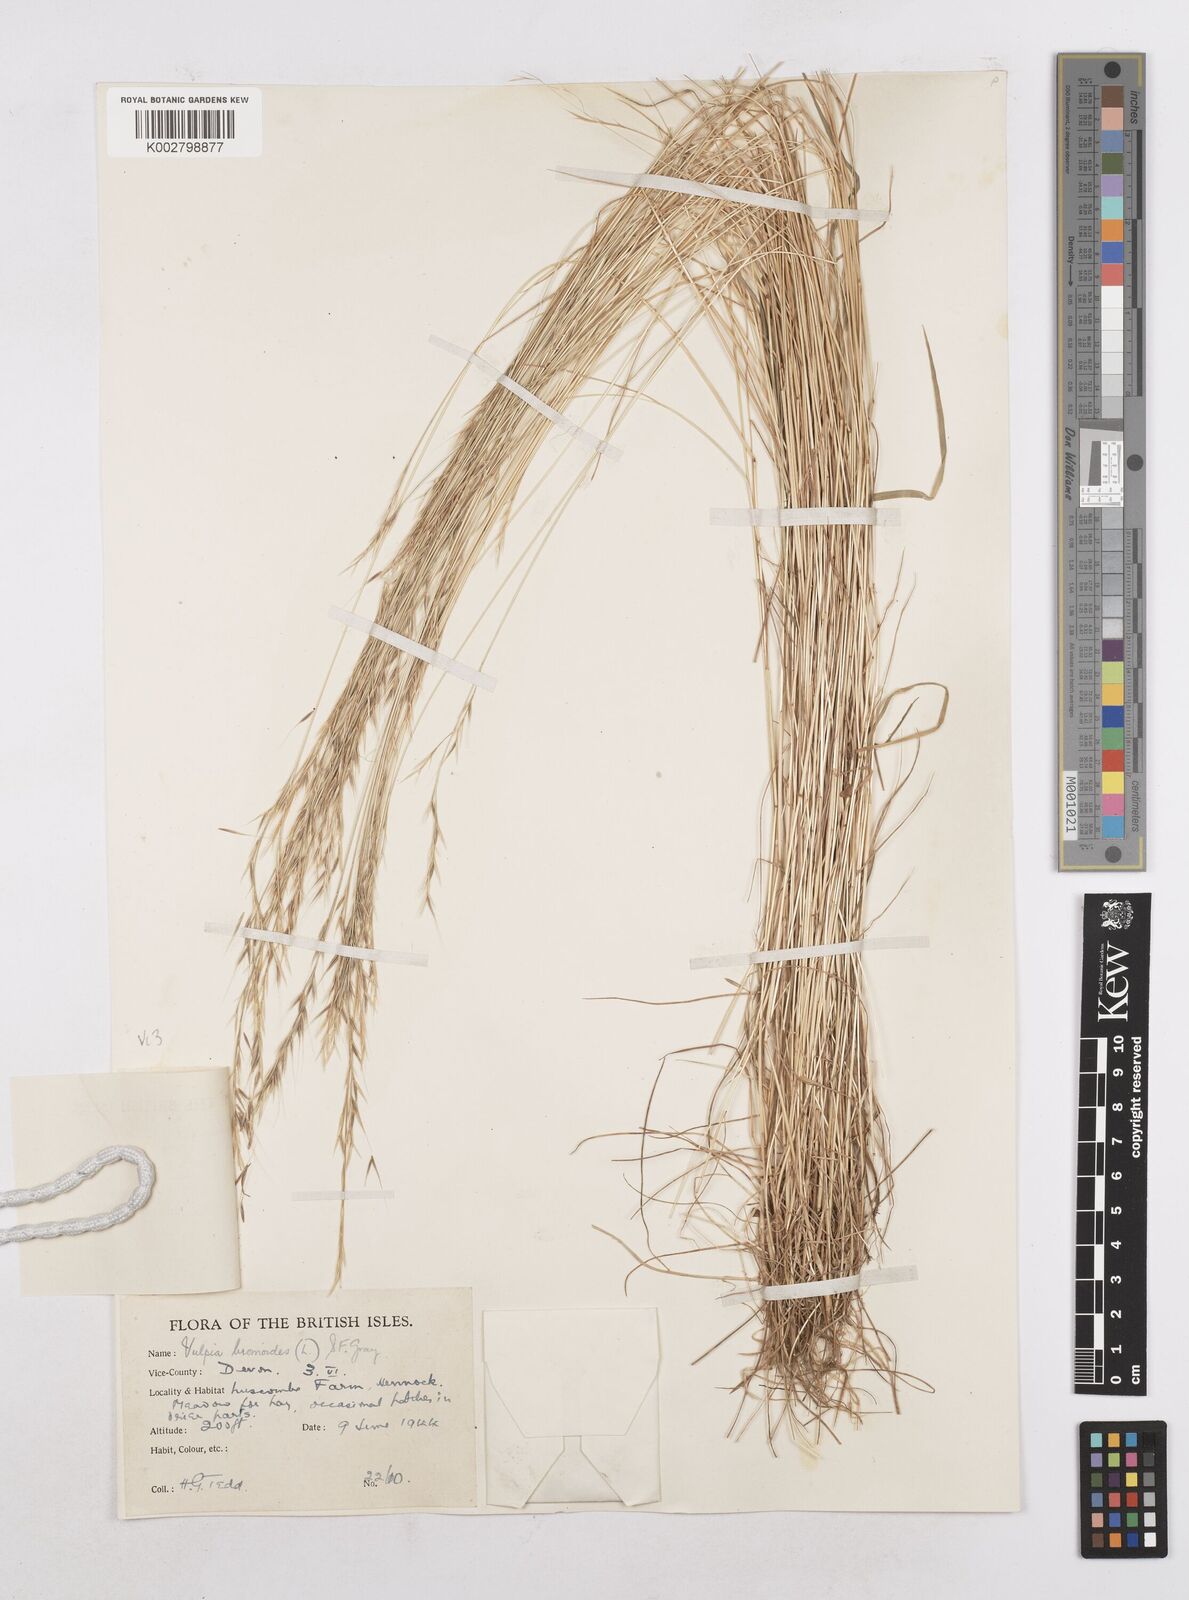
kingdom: Plantae
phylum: Tracheophyta
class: Liliopsida
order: Poales
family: Poaceae
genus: Festuca
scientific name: Festuca bromoides
